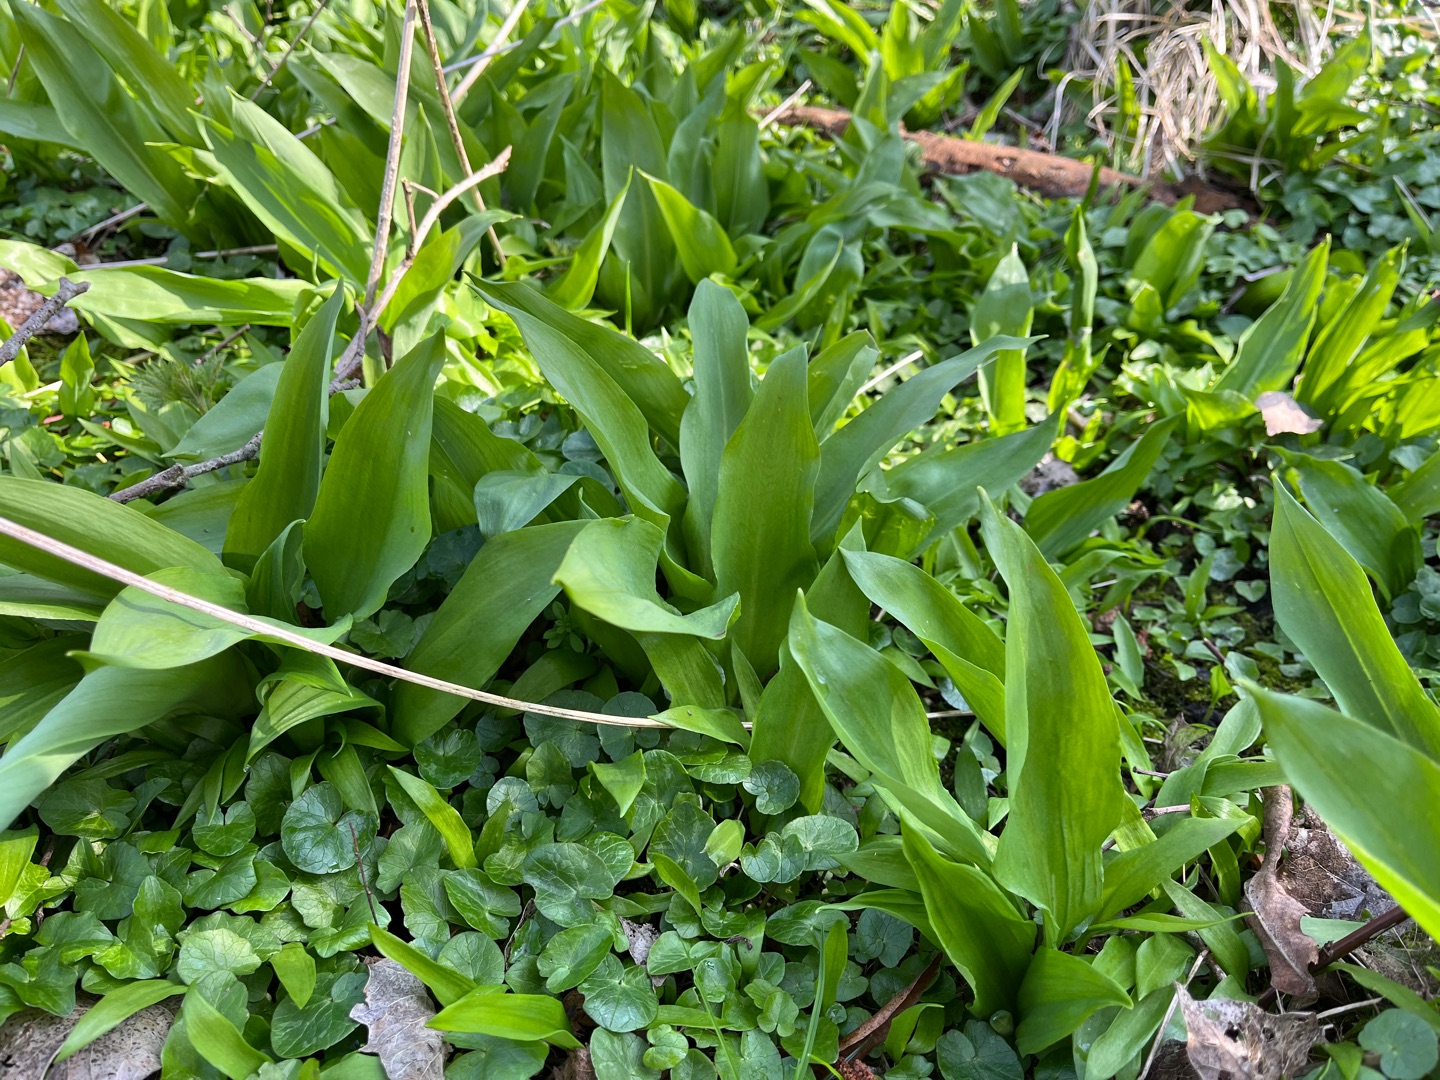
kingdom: Plantae
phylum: Tracheophyta
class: Liliopsida
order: Asparagales
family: Amaryllidaceae
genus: Allium
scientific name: Allium ursinum
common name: Rams-løg
